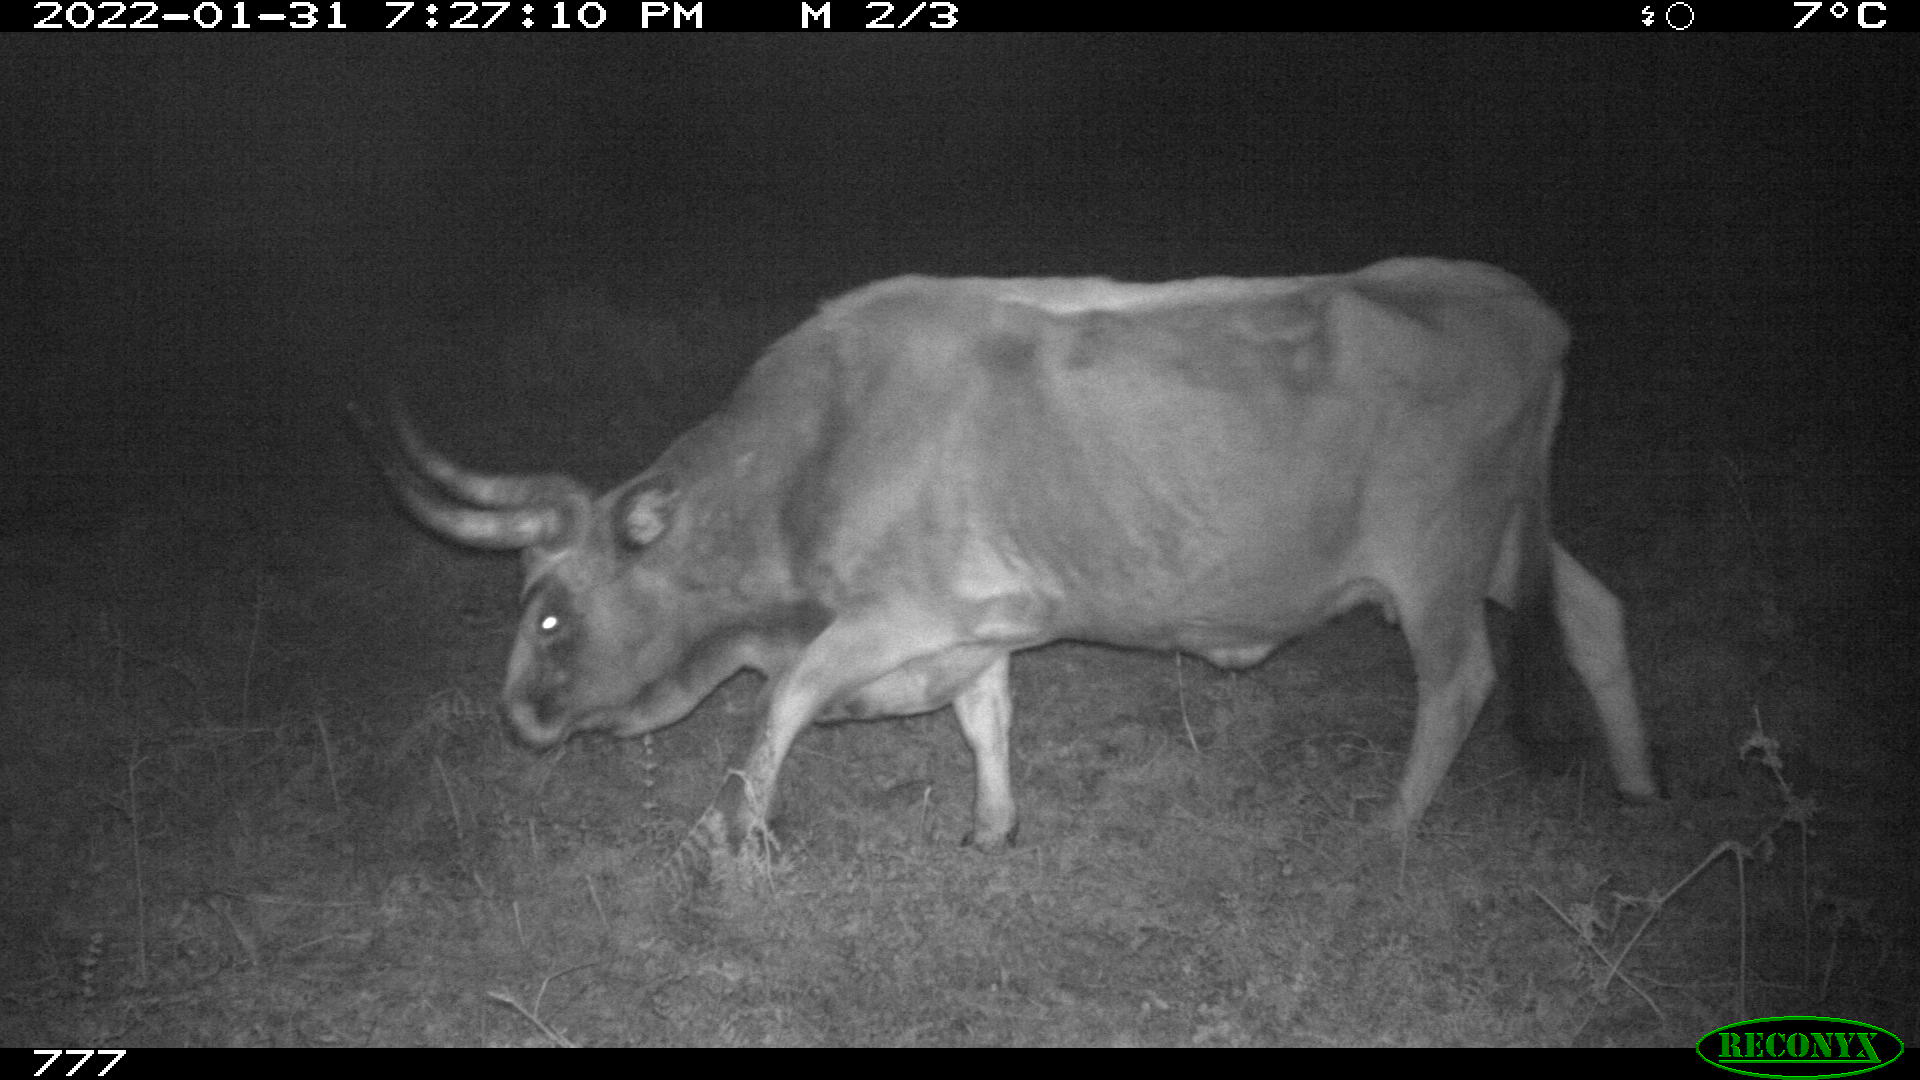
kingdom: Animalia
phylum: Chordata
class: Mammalia
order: Artiodactyla
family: Bovidae
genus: Bos
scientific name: Bos taurus
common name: Domesticated cattle
